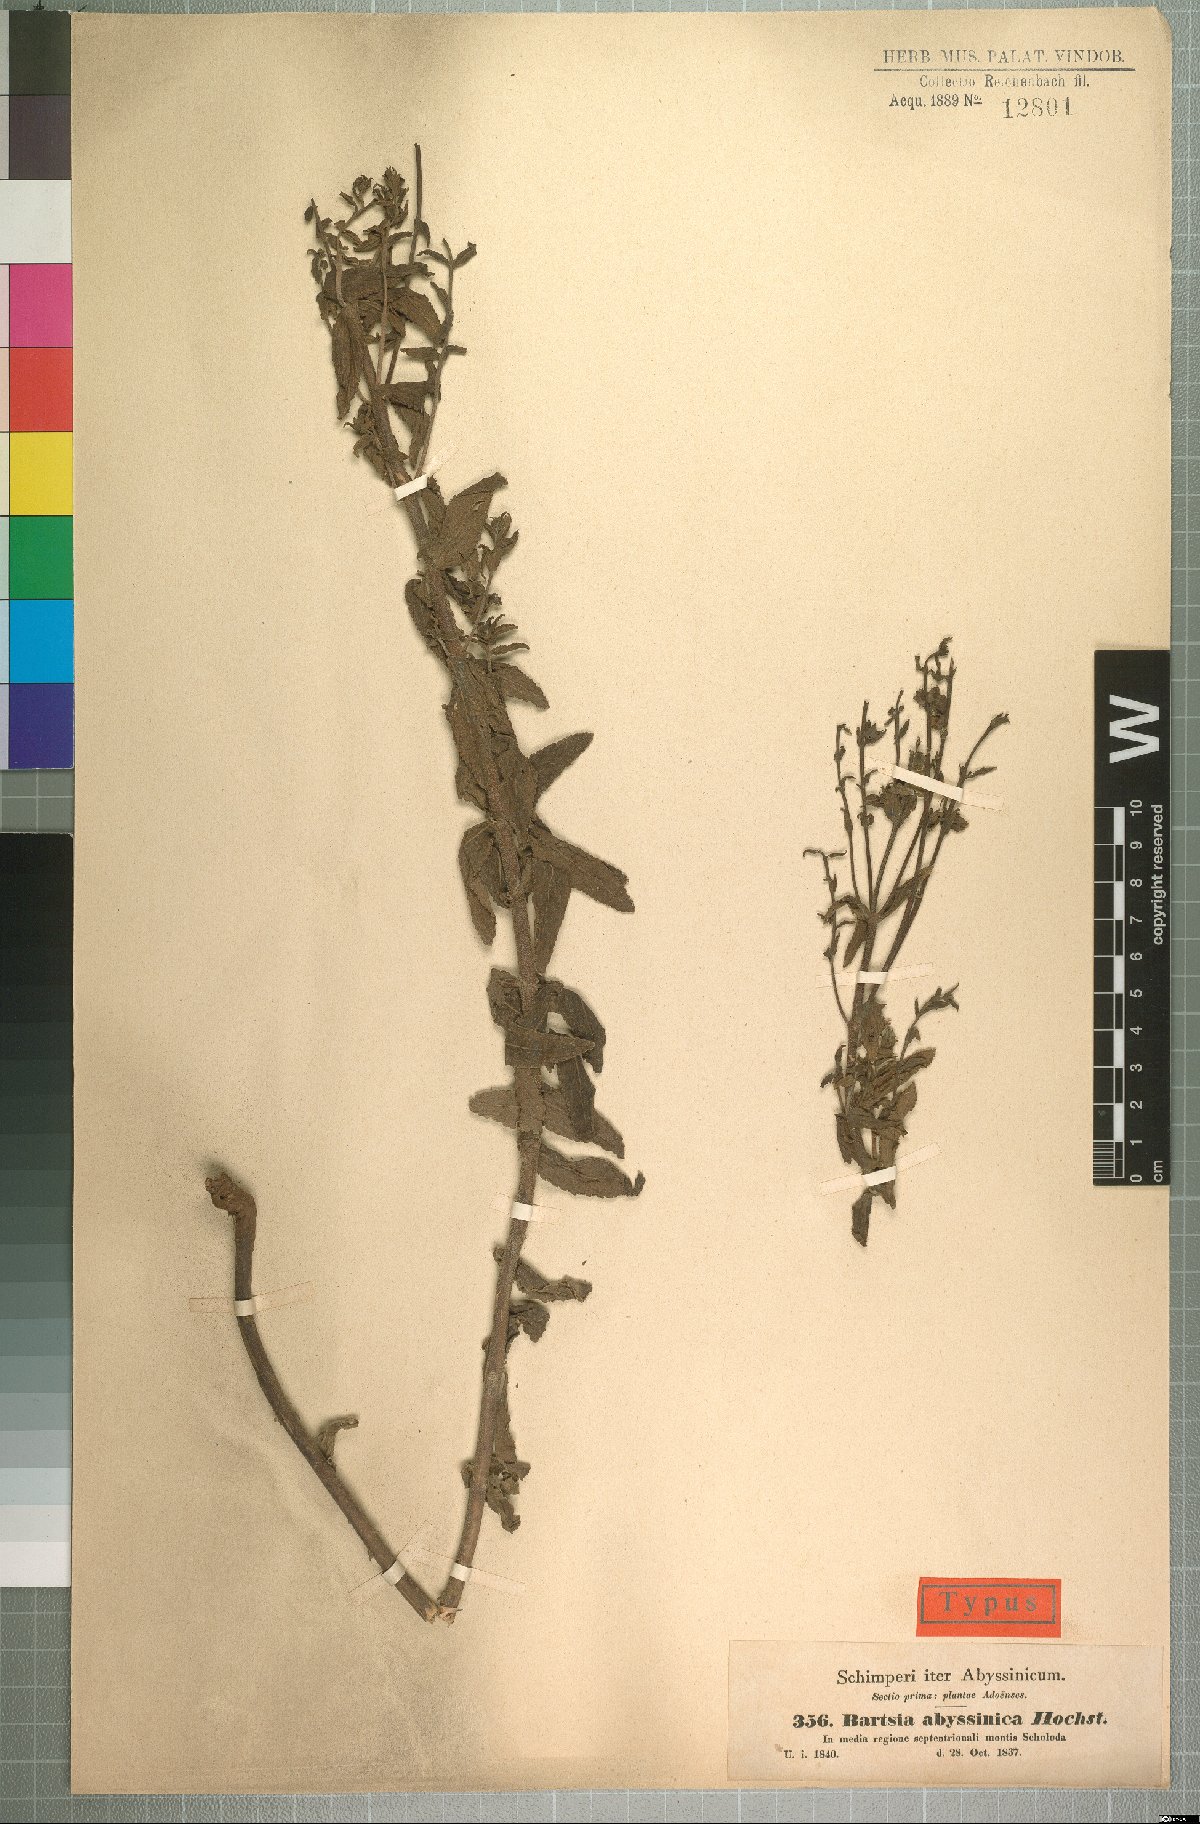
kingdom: Plantae
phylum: Tracheophyta
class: Magnoliopsida
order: Lamiales
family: Orobanchaceae
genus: Hedbergia
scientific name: Hedbergia abyssinica
